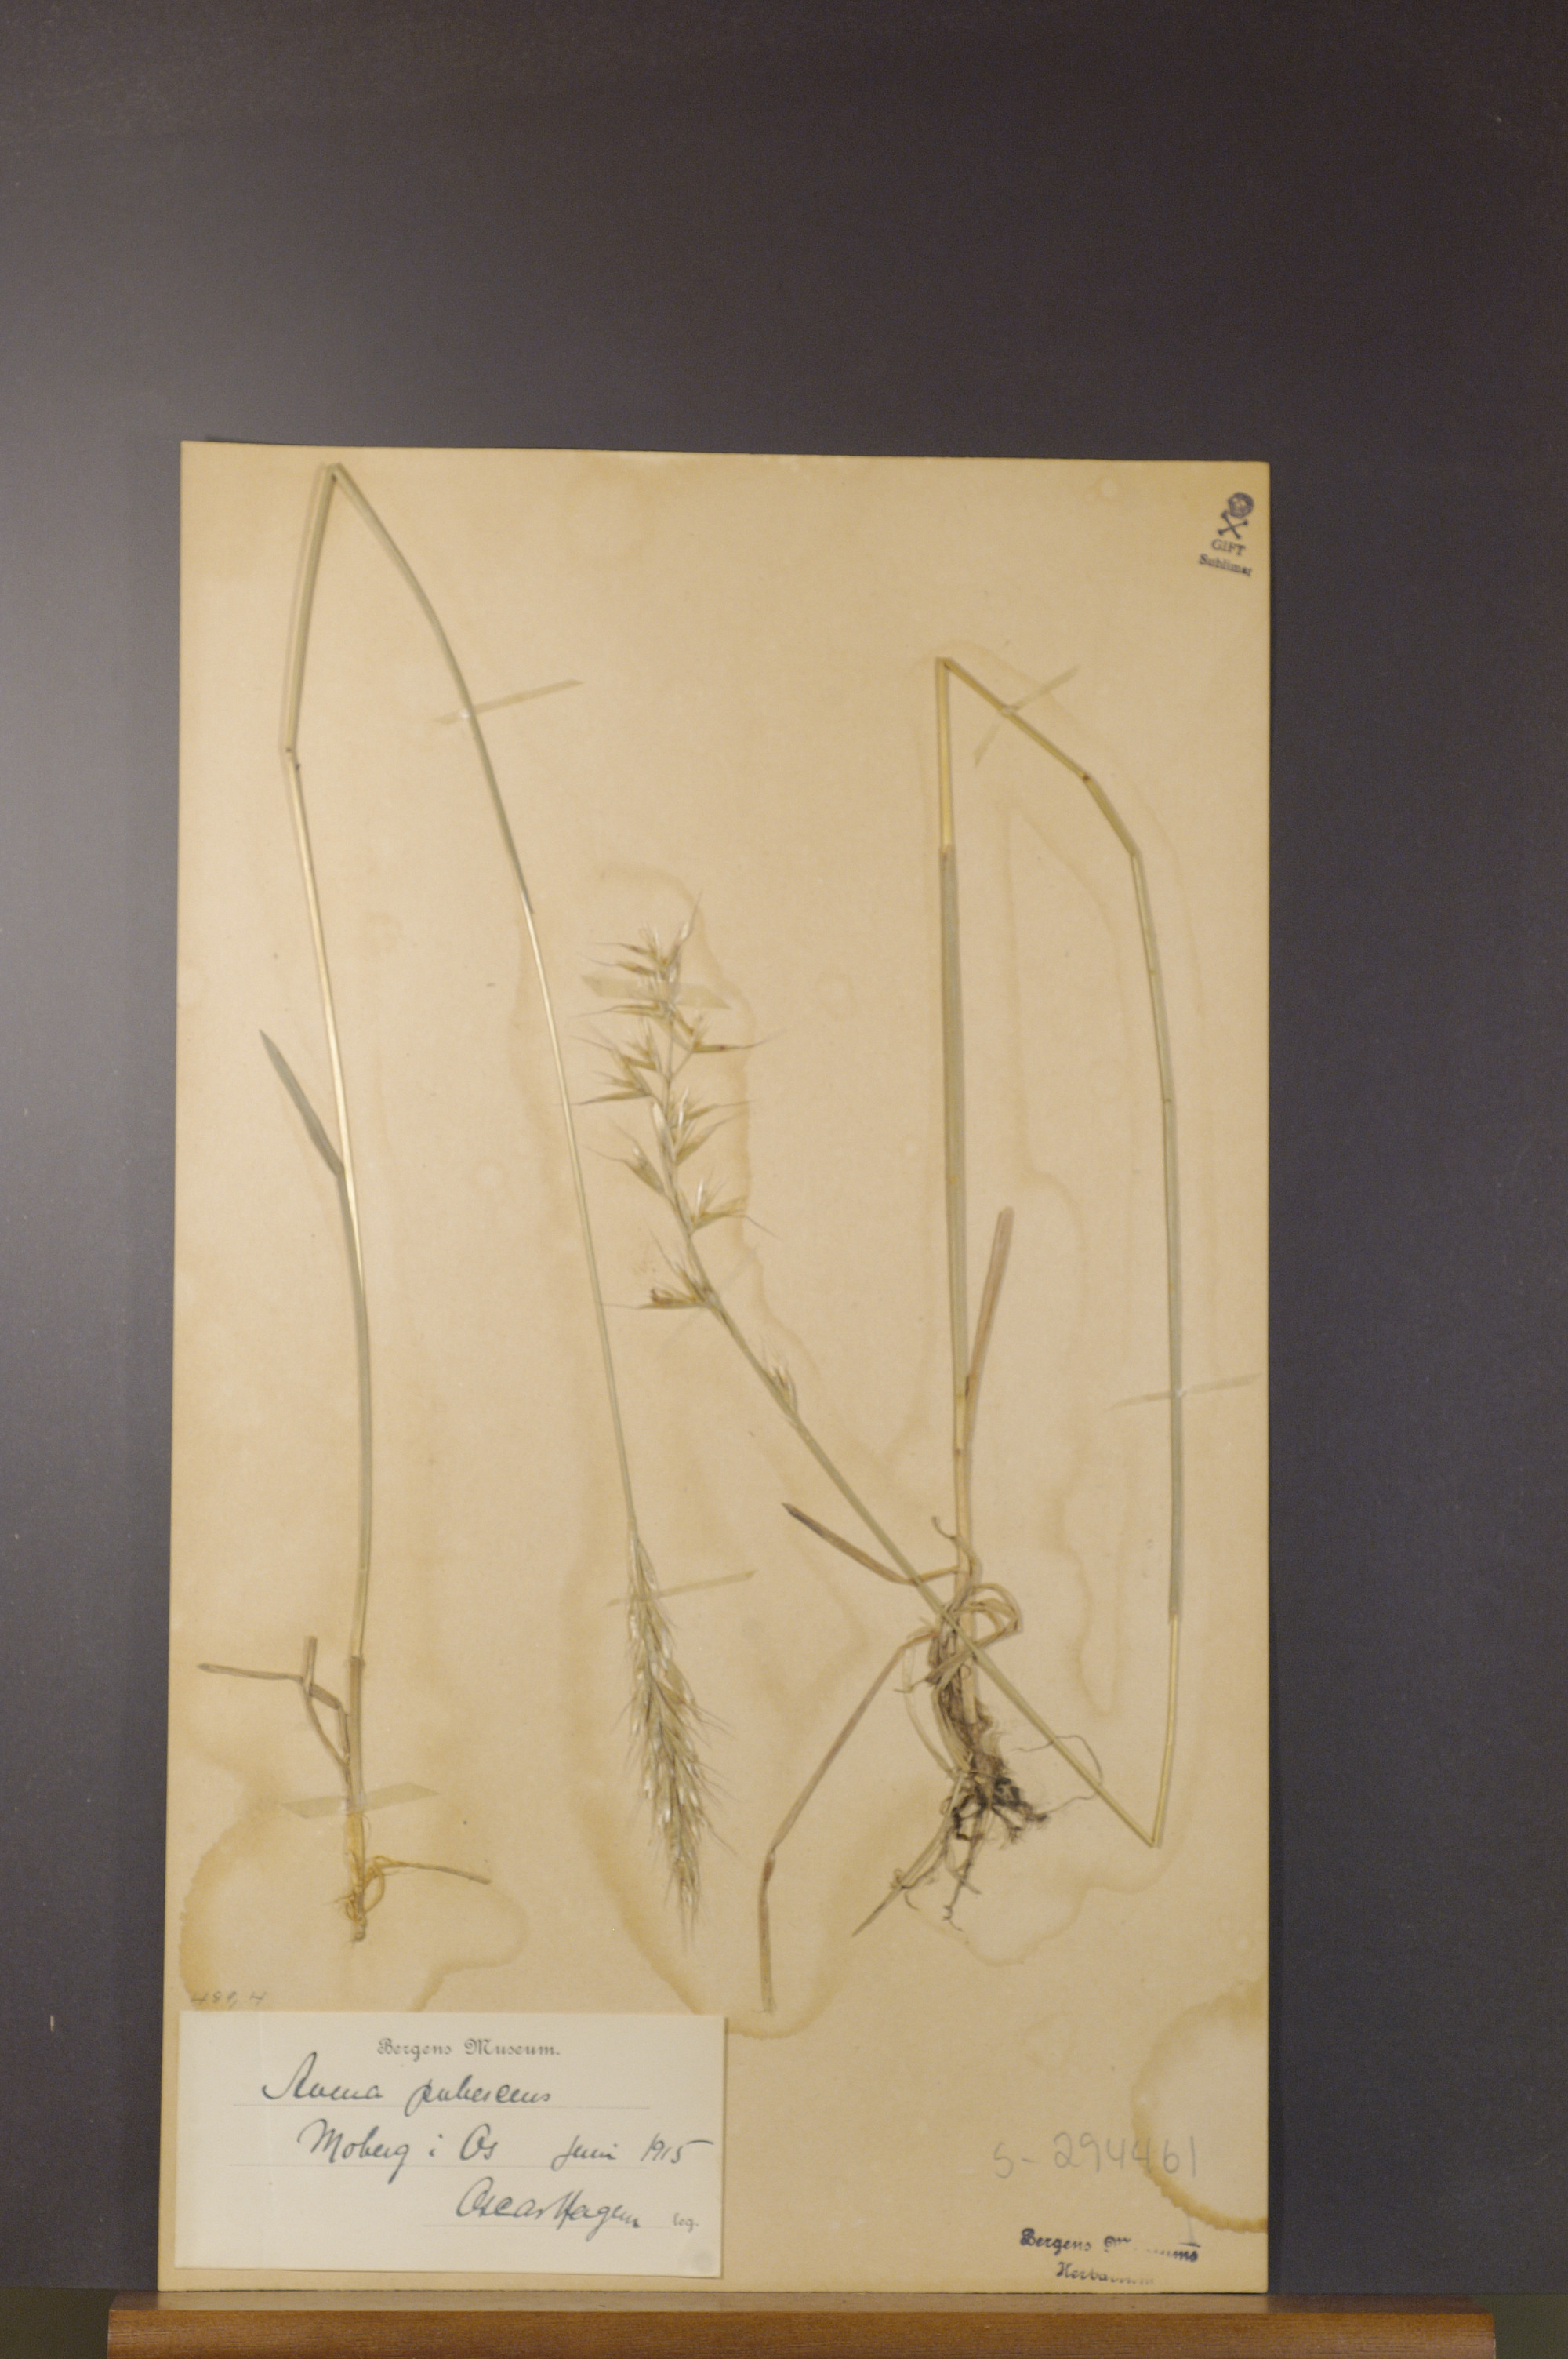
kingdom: Plantae
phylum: Tracheophyta
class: Liliopsida
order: Poales
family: Poaceae
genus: Avenula
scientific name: Avenula pubescens
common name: Downy alpine oatgrass
